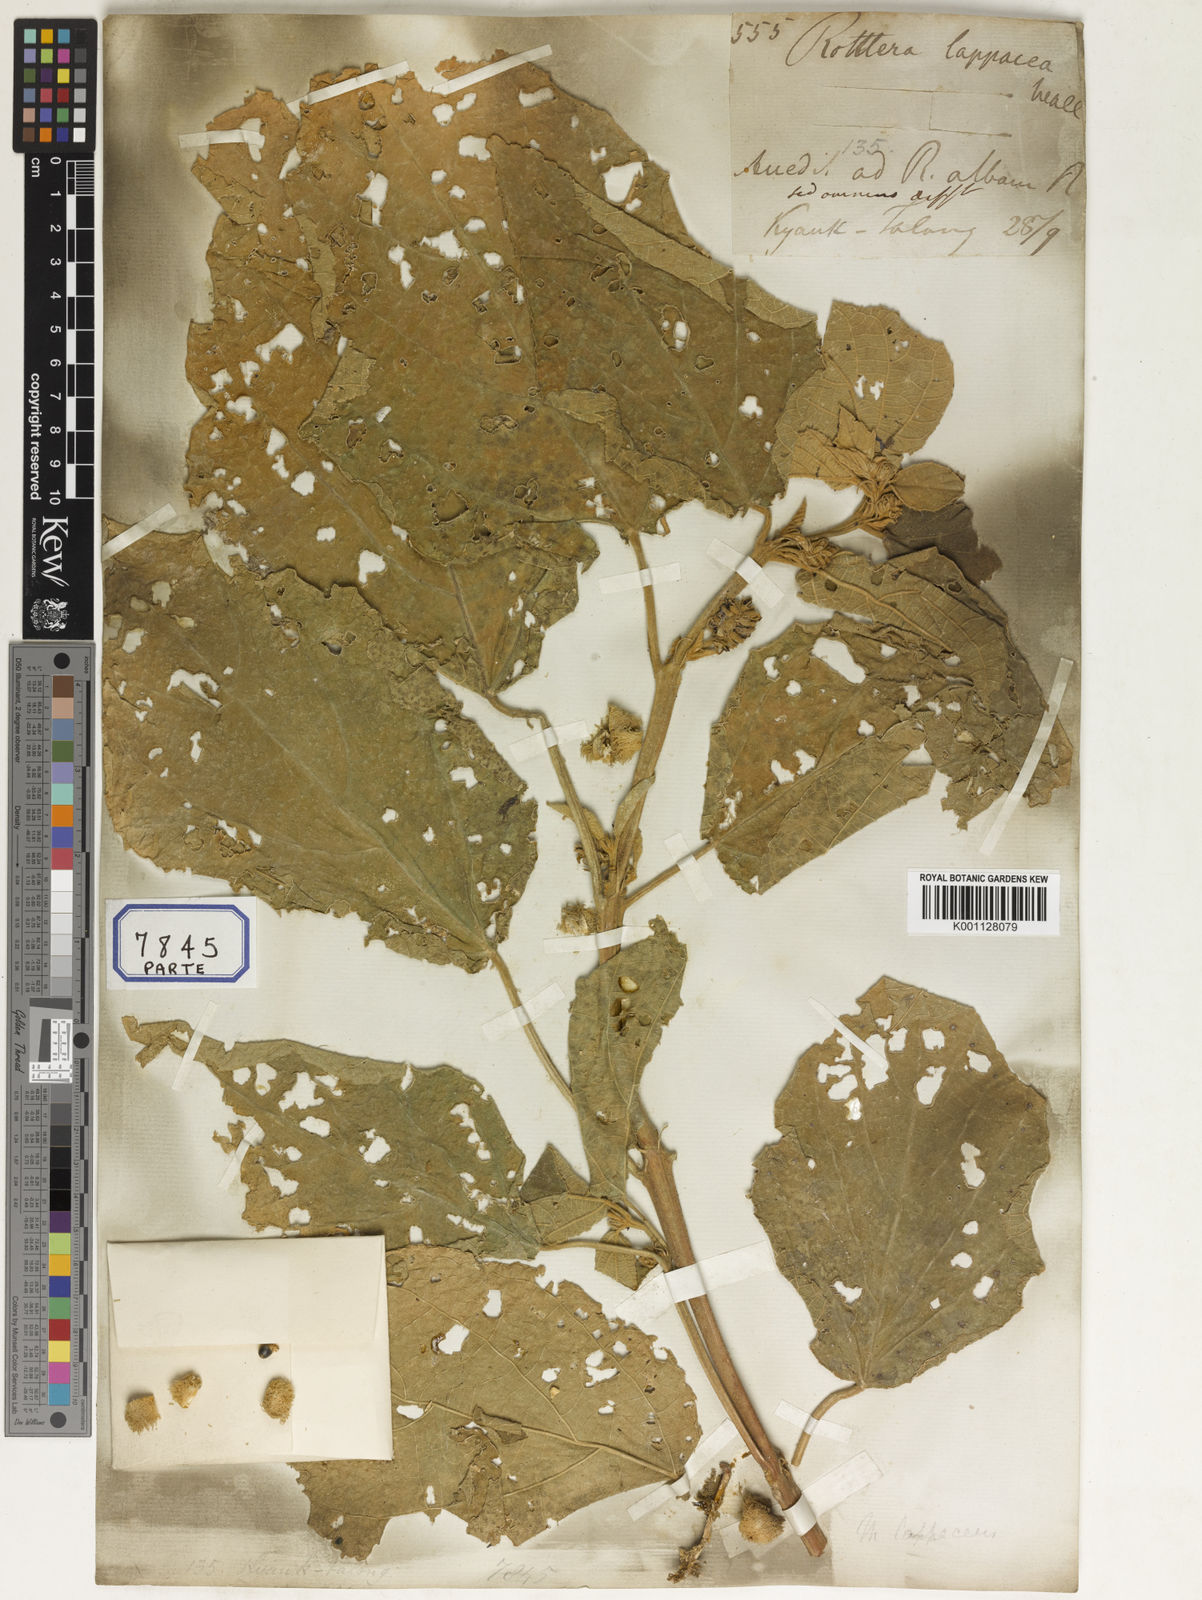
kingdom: Plantae
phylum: Tracheophyta
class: Magnoliopsida
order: Malpighiales
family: Euphorbiaceae
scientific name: Euphorbiaceae
